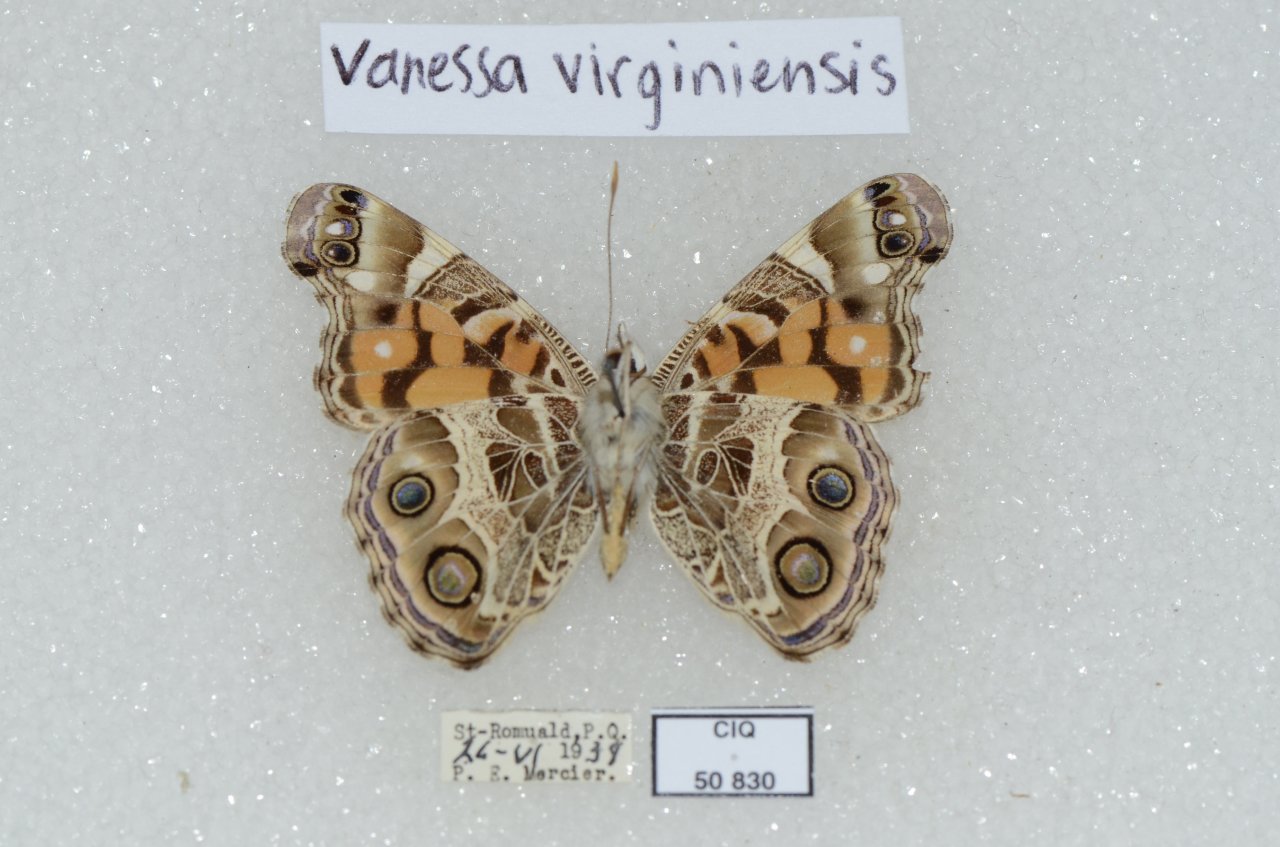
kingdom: Animalia
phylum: Arthropoda
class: Insecta
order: Lepidoptera
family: Nymphalidae
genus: Vanessa
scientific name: Vanessa virginiensis
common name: American Lady
